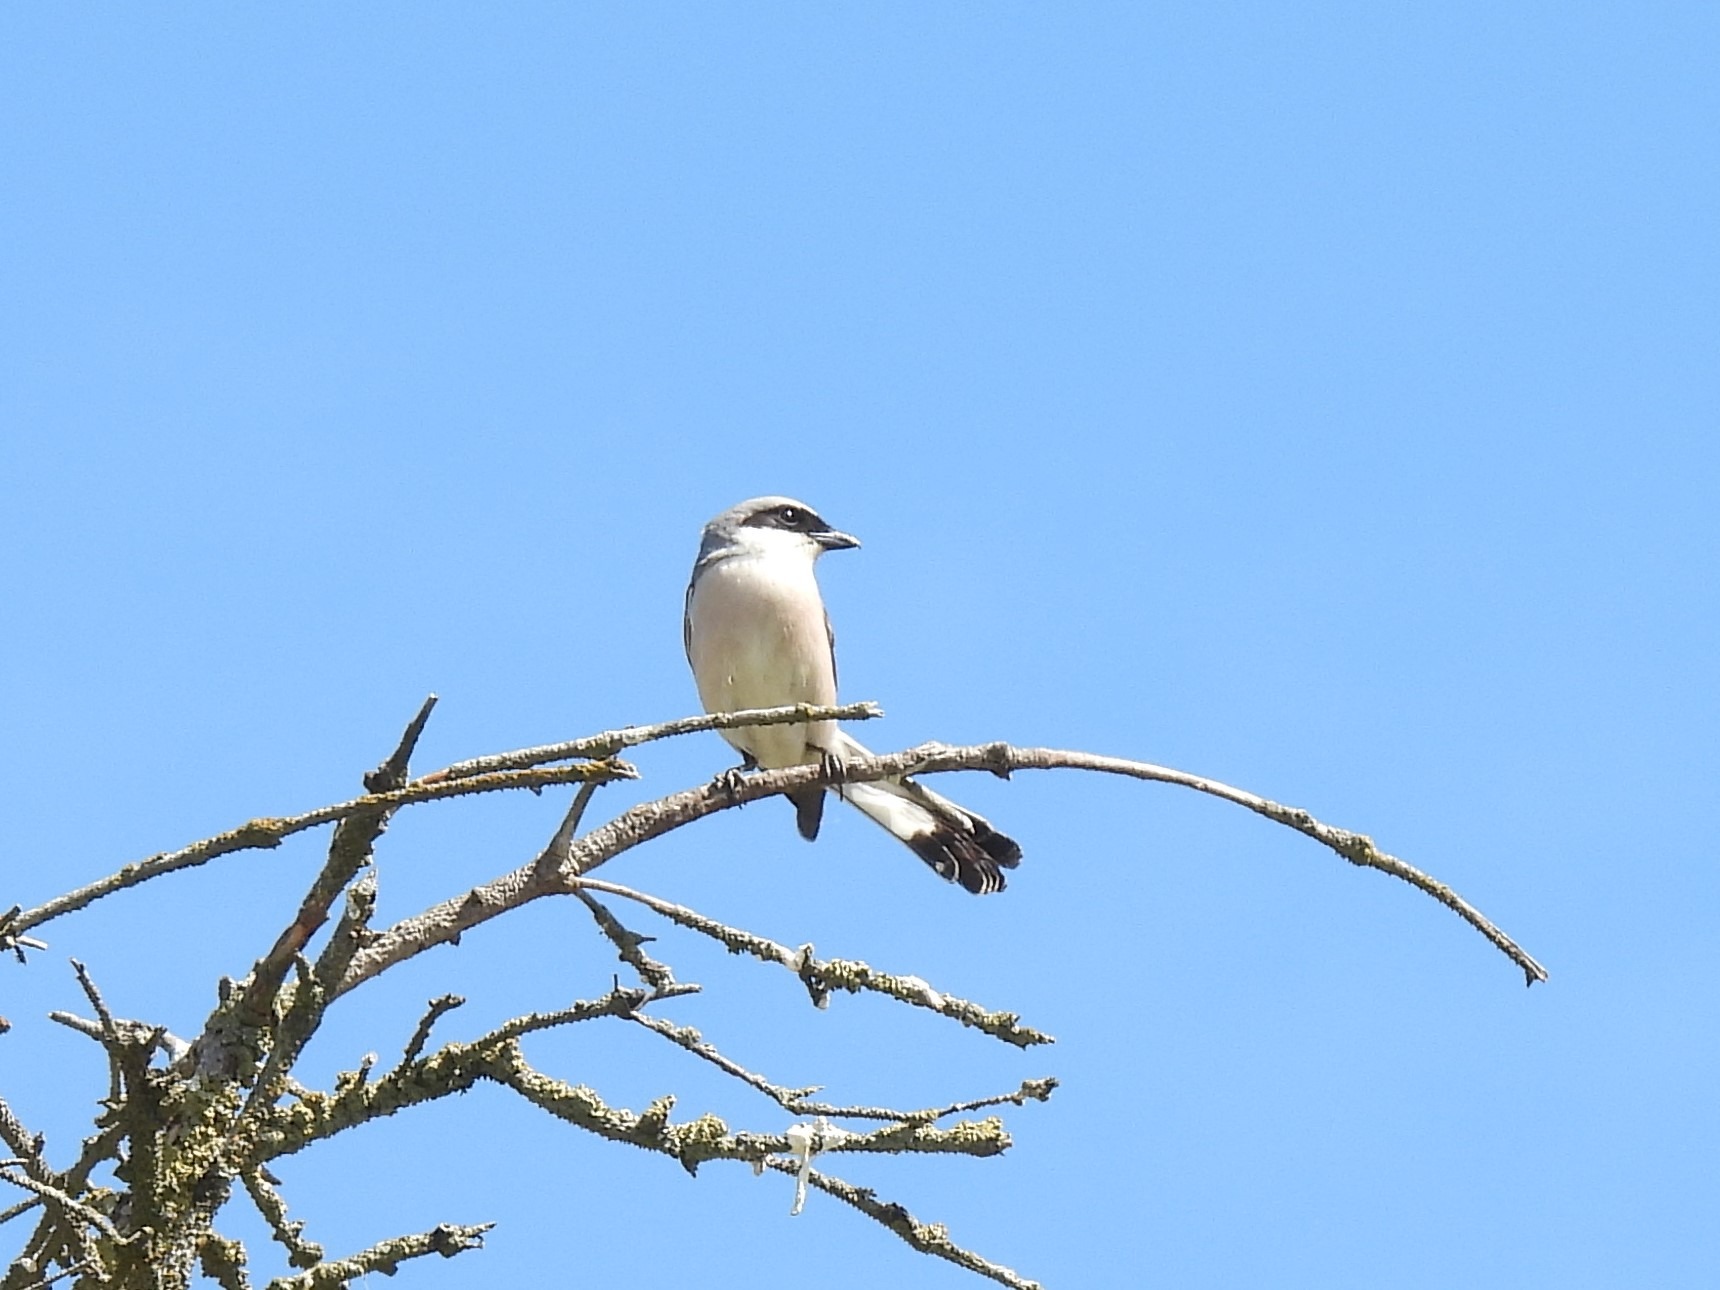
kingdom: Animalia
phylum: Chordata
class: Aves
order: Passeriformes
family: Laniidae
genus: Lanius
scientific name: Lanius collurio
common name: Rødrygget tornskade
